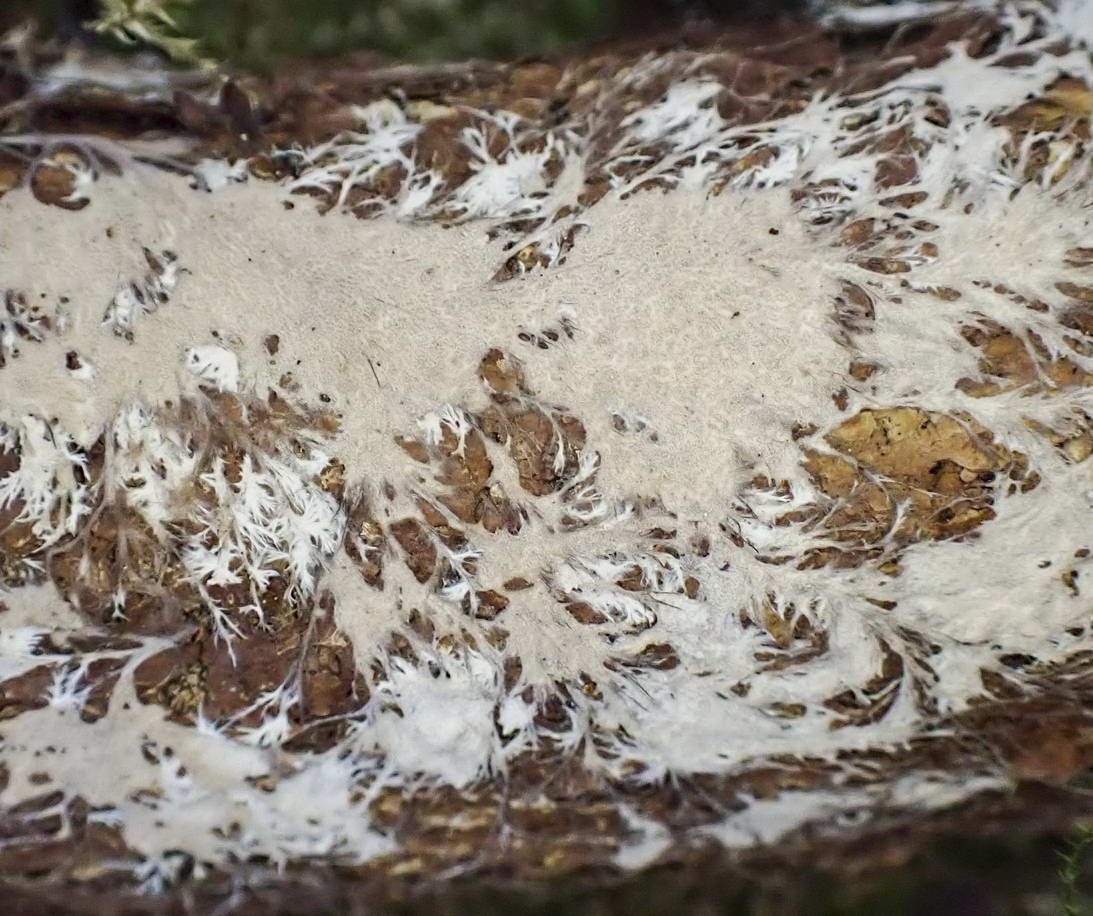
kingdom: Fungi
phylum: Basidiomycota
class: Agaricomycetes
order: Polyporales
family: Steccherinaceae
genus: Steccherinum
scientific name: Steccherinum fimbriatum
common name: trådet skønpig
